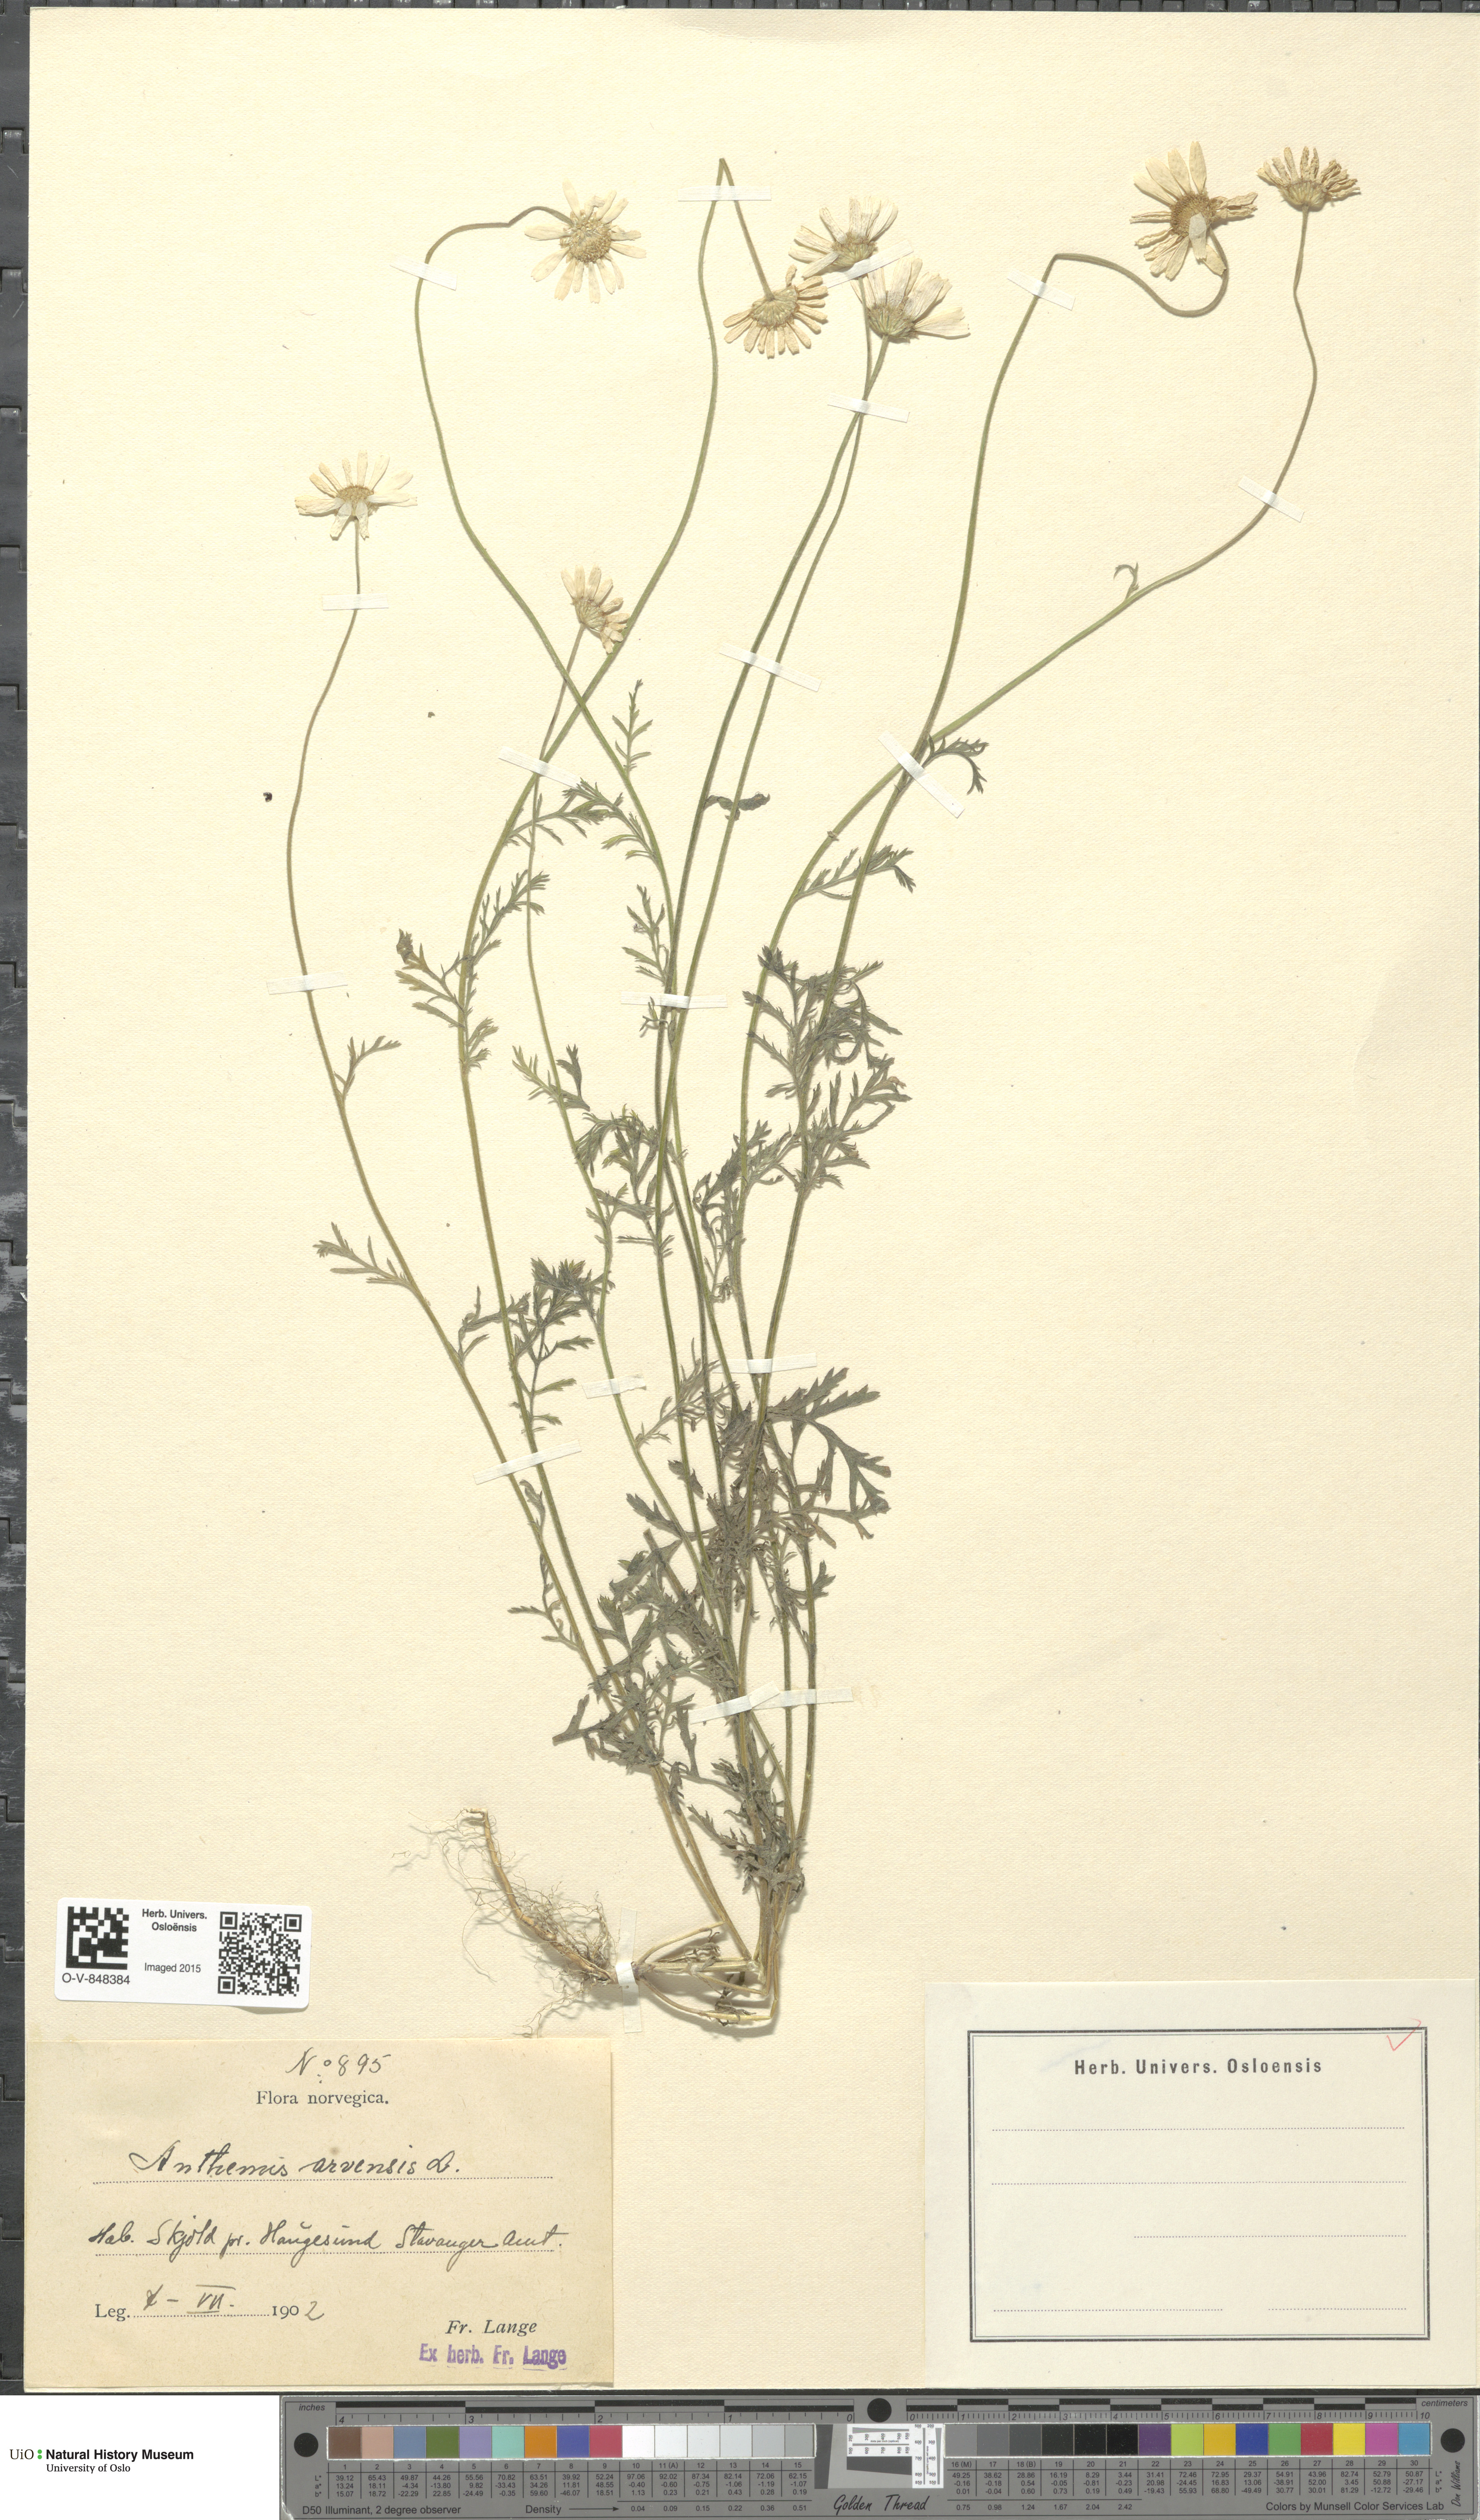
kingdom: Plantae
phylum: Tracheophyta
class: Magnoliopsida
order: Asterales
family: Asteraceae
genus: Anthemis
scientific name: Anthemis arvensis
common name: Corn chamomile
